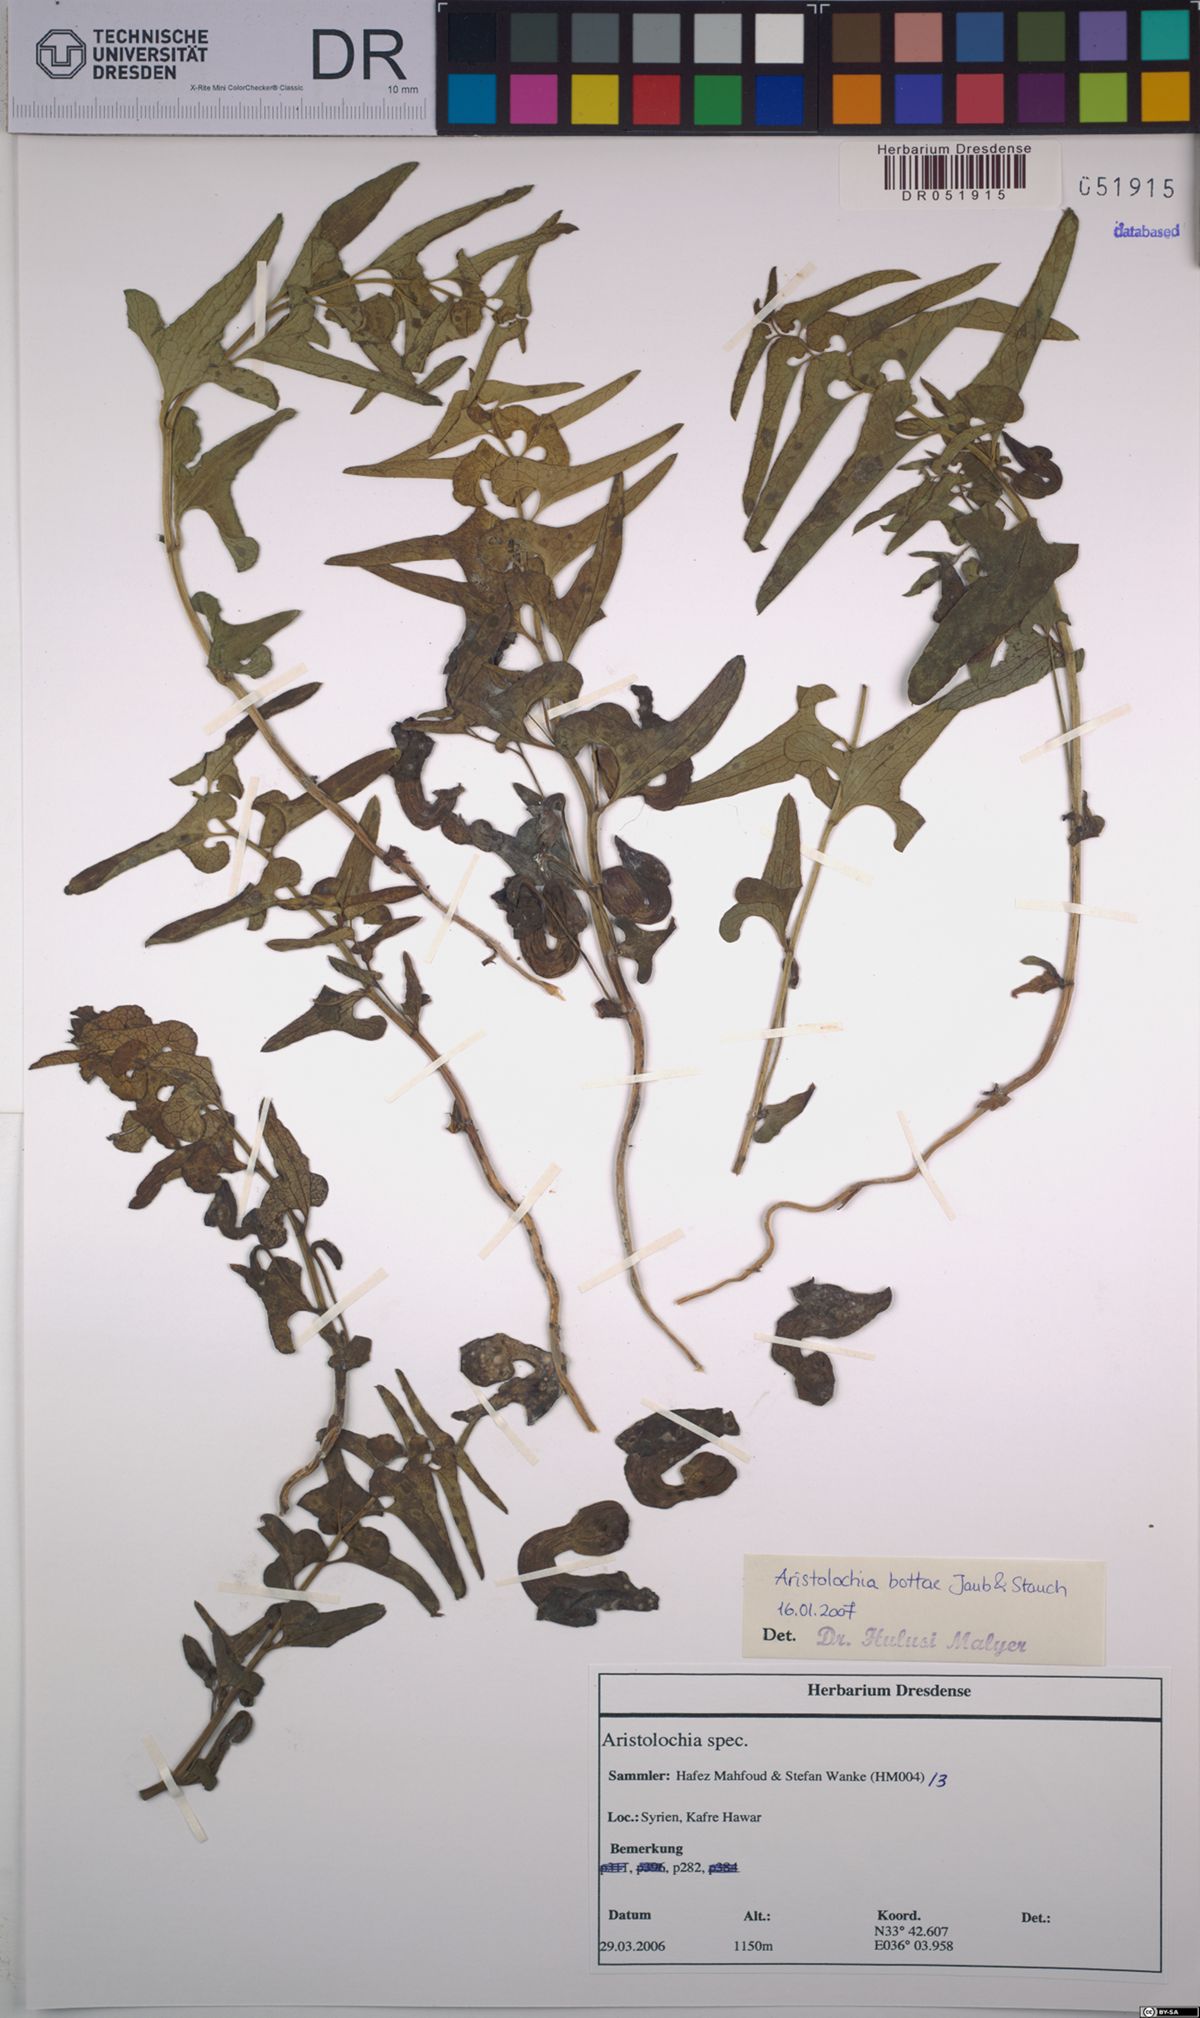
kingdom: Plantae
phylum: Tracheophyta
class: Magnoliopsida
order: Piperales
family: Aristolochiaceae
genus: Aristolochia
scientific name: Aristolochia bottae
